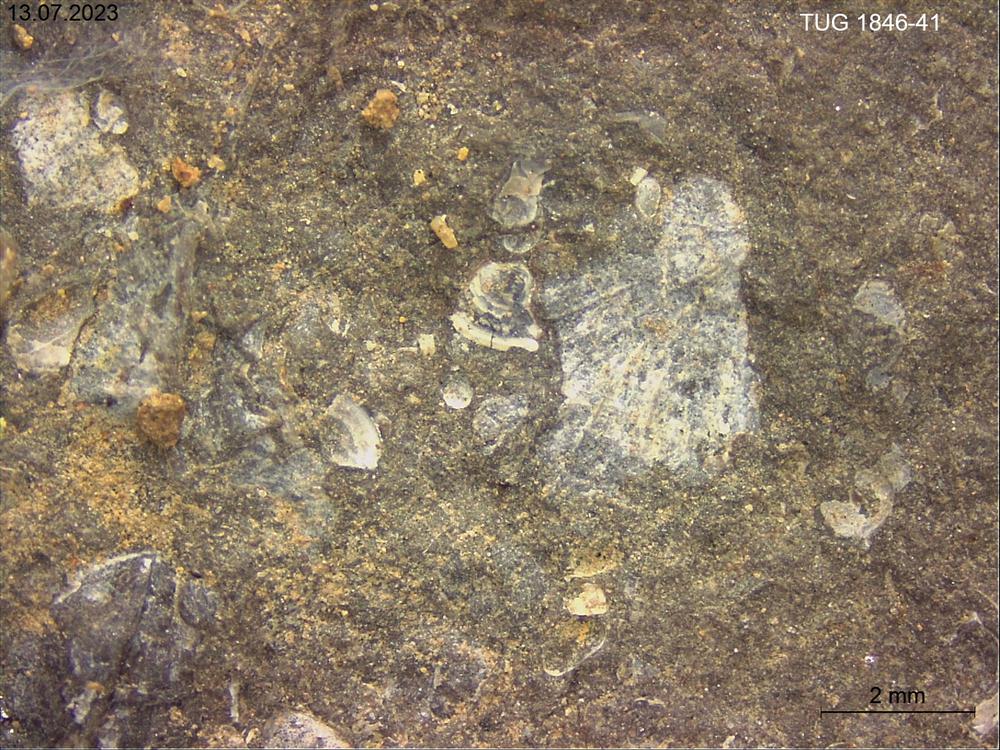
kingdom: Animalia
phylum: Brachiopoda
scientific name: Brachiopoda
